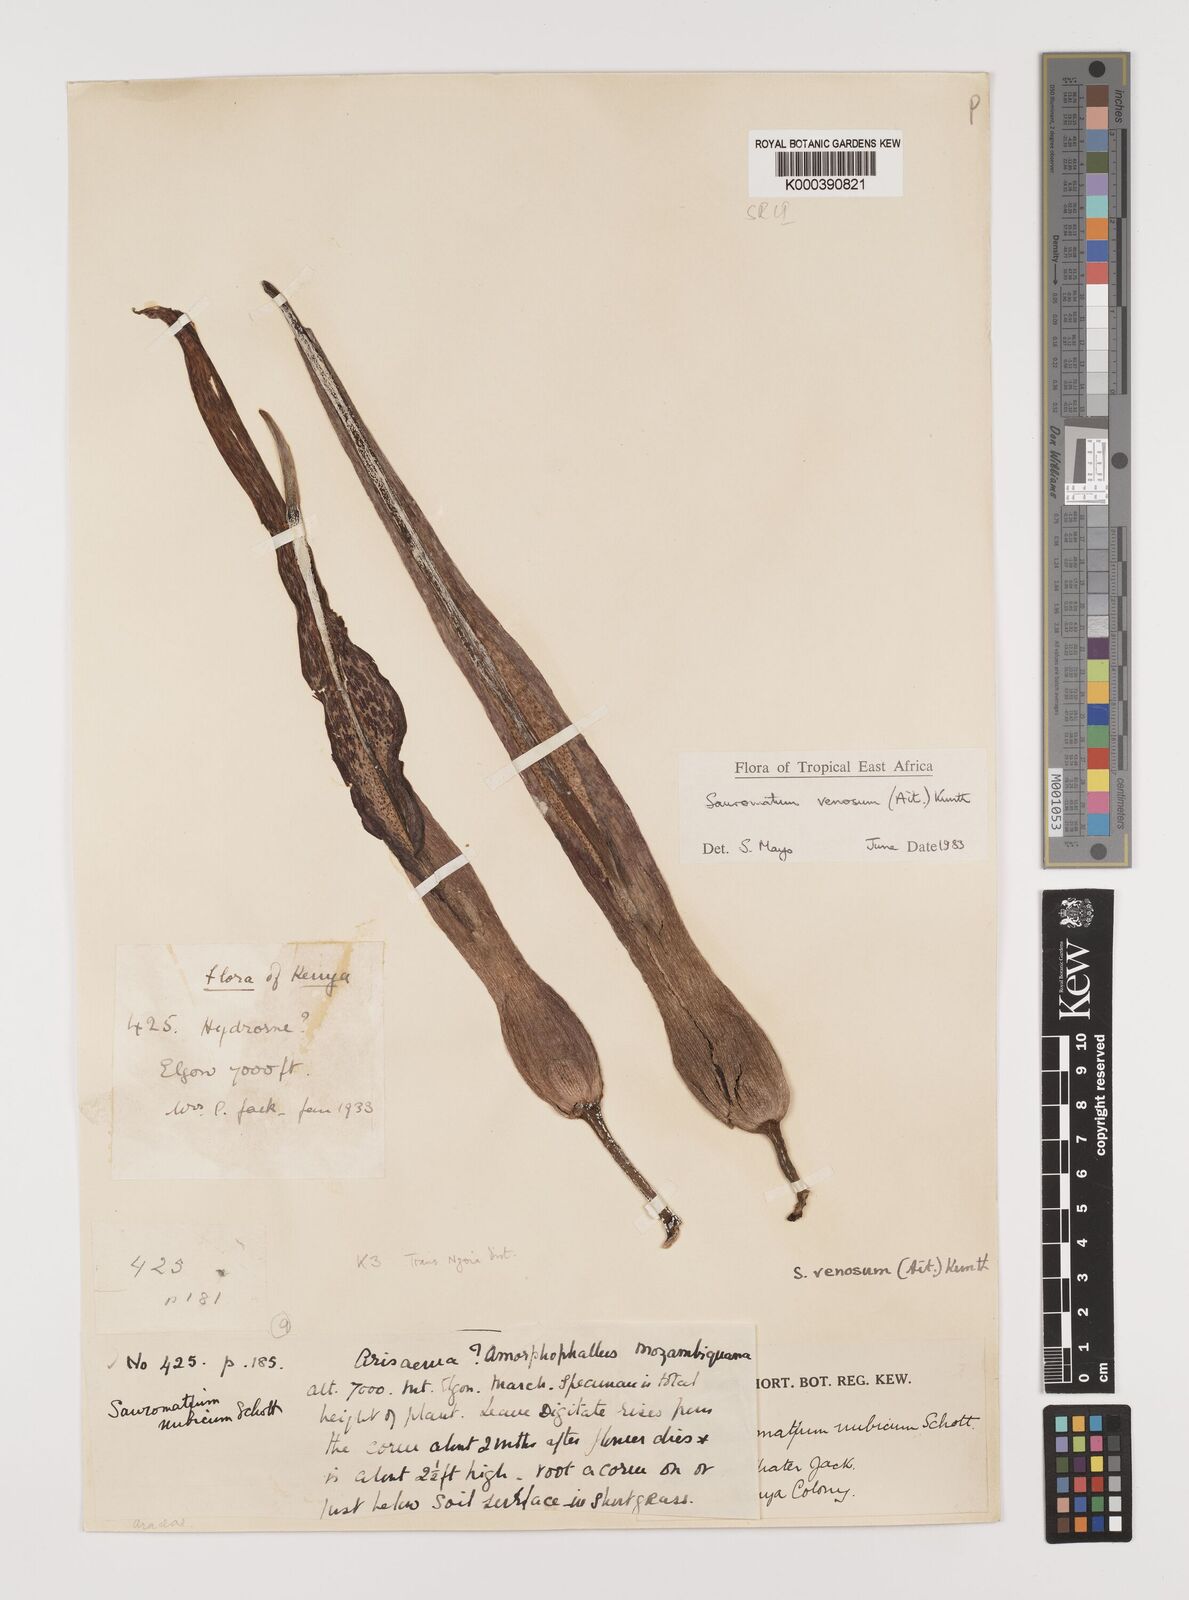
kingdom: Plantae
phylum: Tracheophyta
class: Liliopsida
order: Alismatales
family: Araceae
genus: Sauromatum
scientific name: Sauromatum venosum
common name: Voodoo lily
